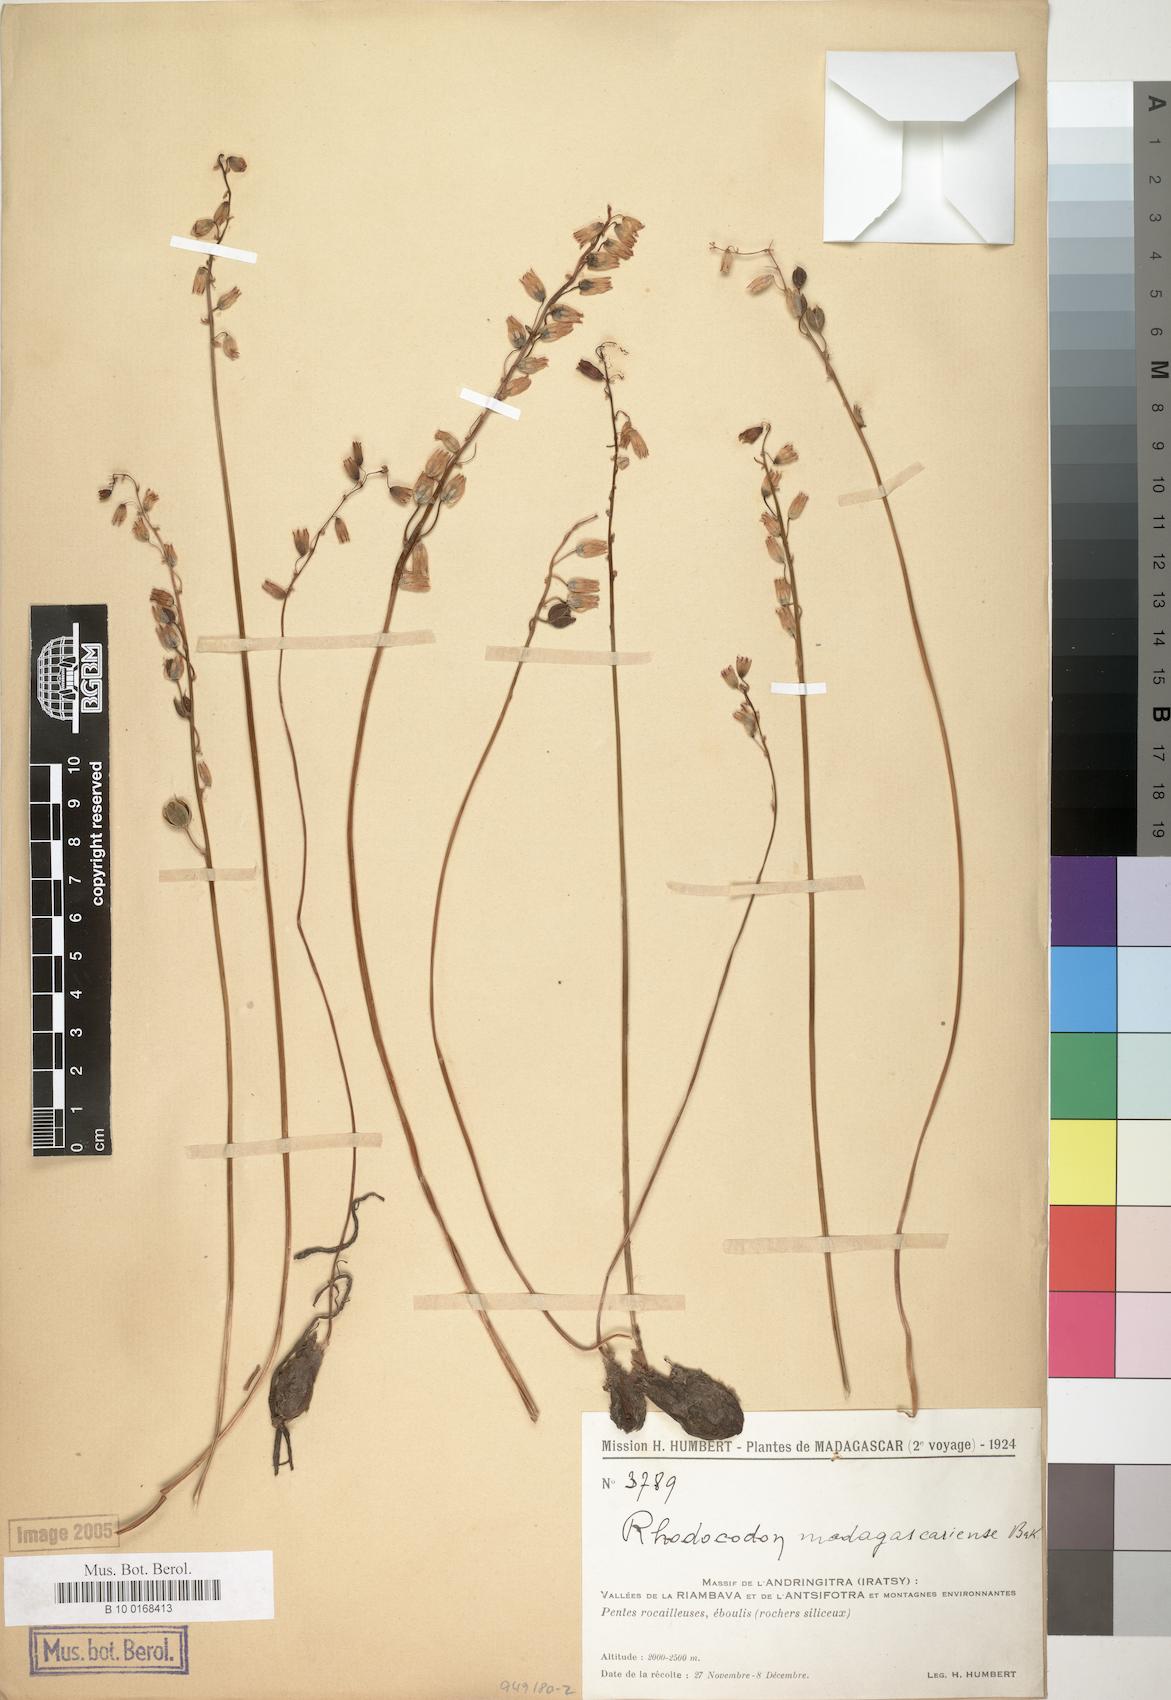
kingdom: Plantae
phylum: Tracheophyta
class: Liliopsida
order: Asparagales
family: Asparagaceae
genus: Drimia
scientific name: Drimia mascarenensis
